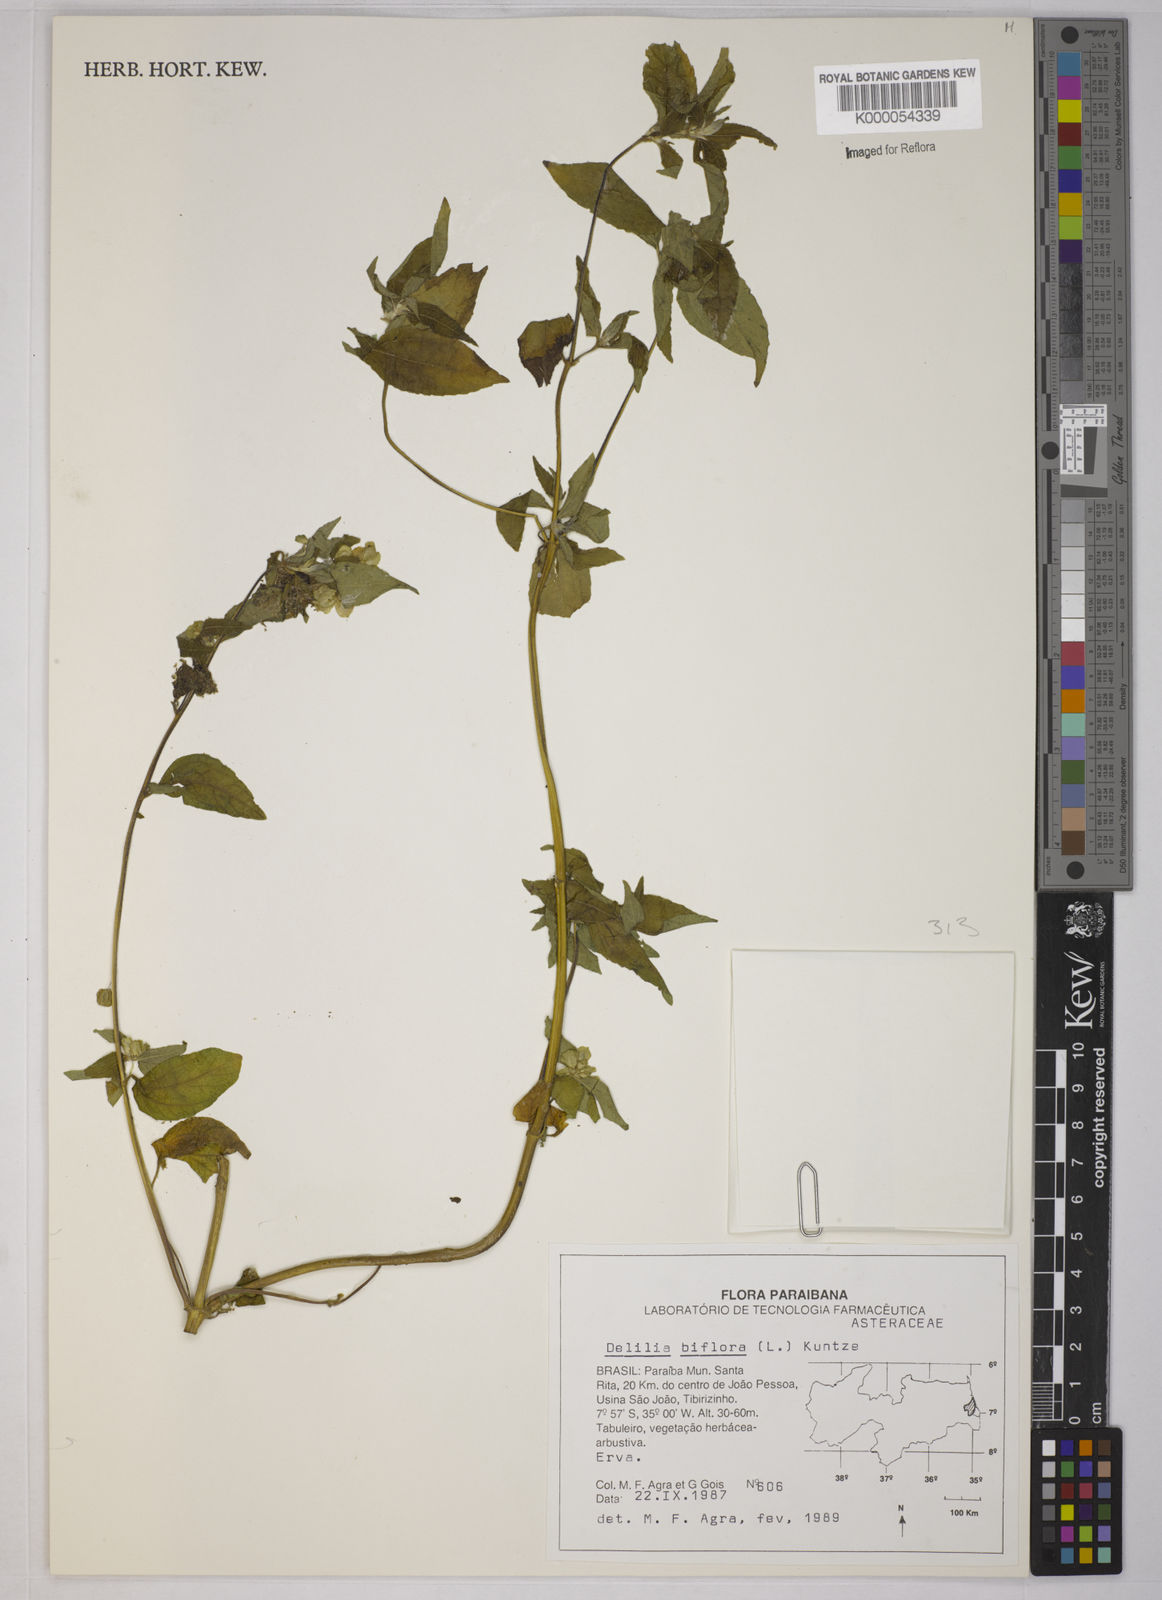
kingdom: Plantae
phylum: Tracheophyta
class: Magnoliopsida
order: Asterales
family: Asteraceae
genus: Delilia
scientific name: Delilia biflora
